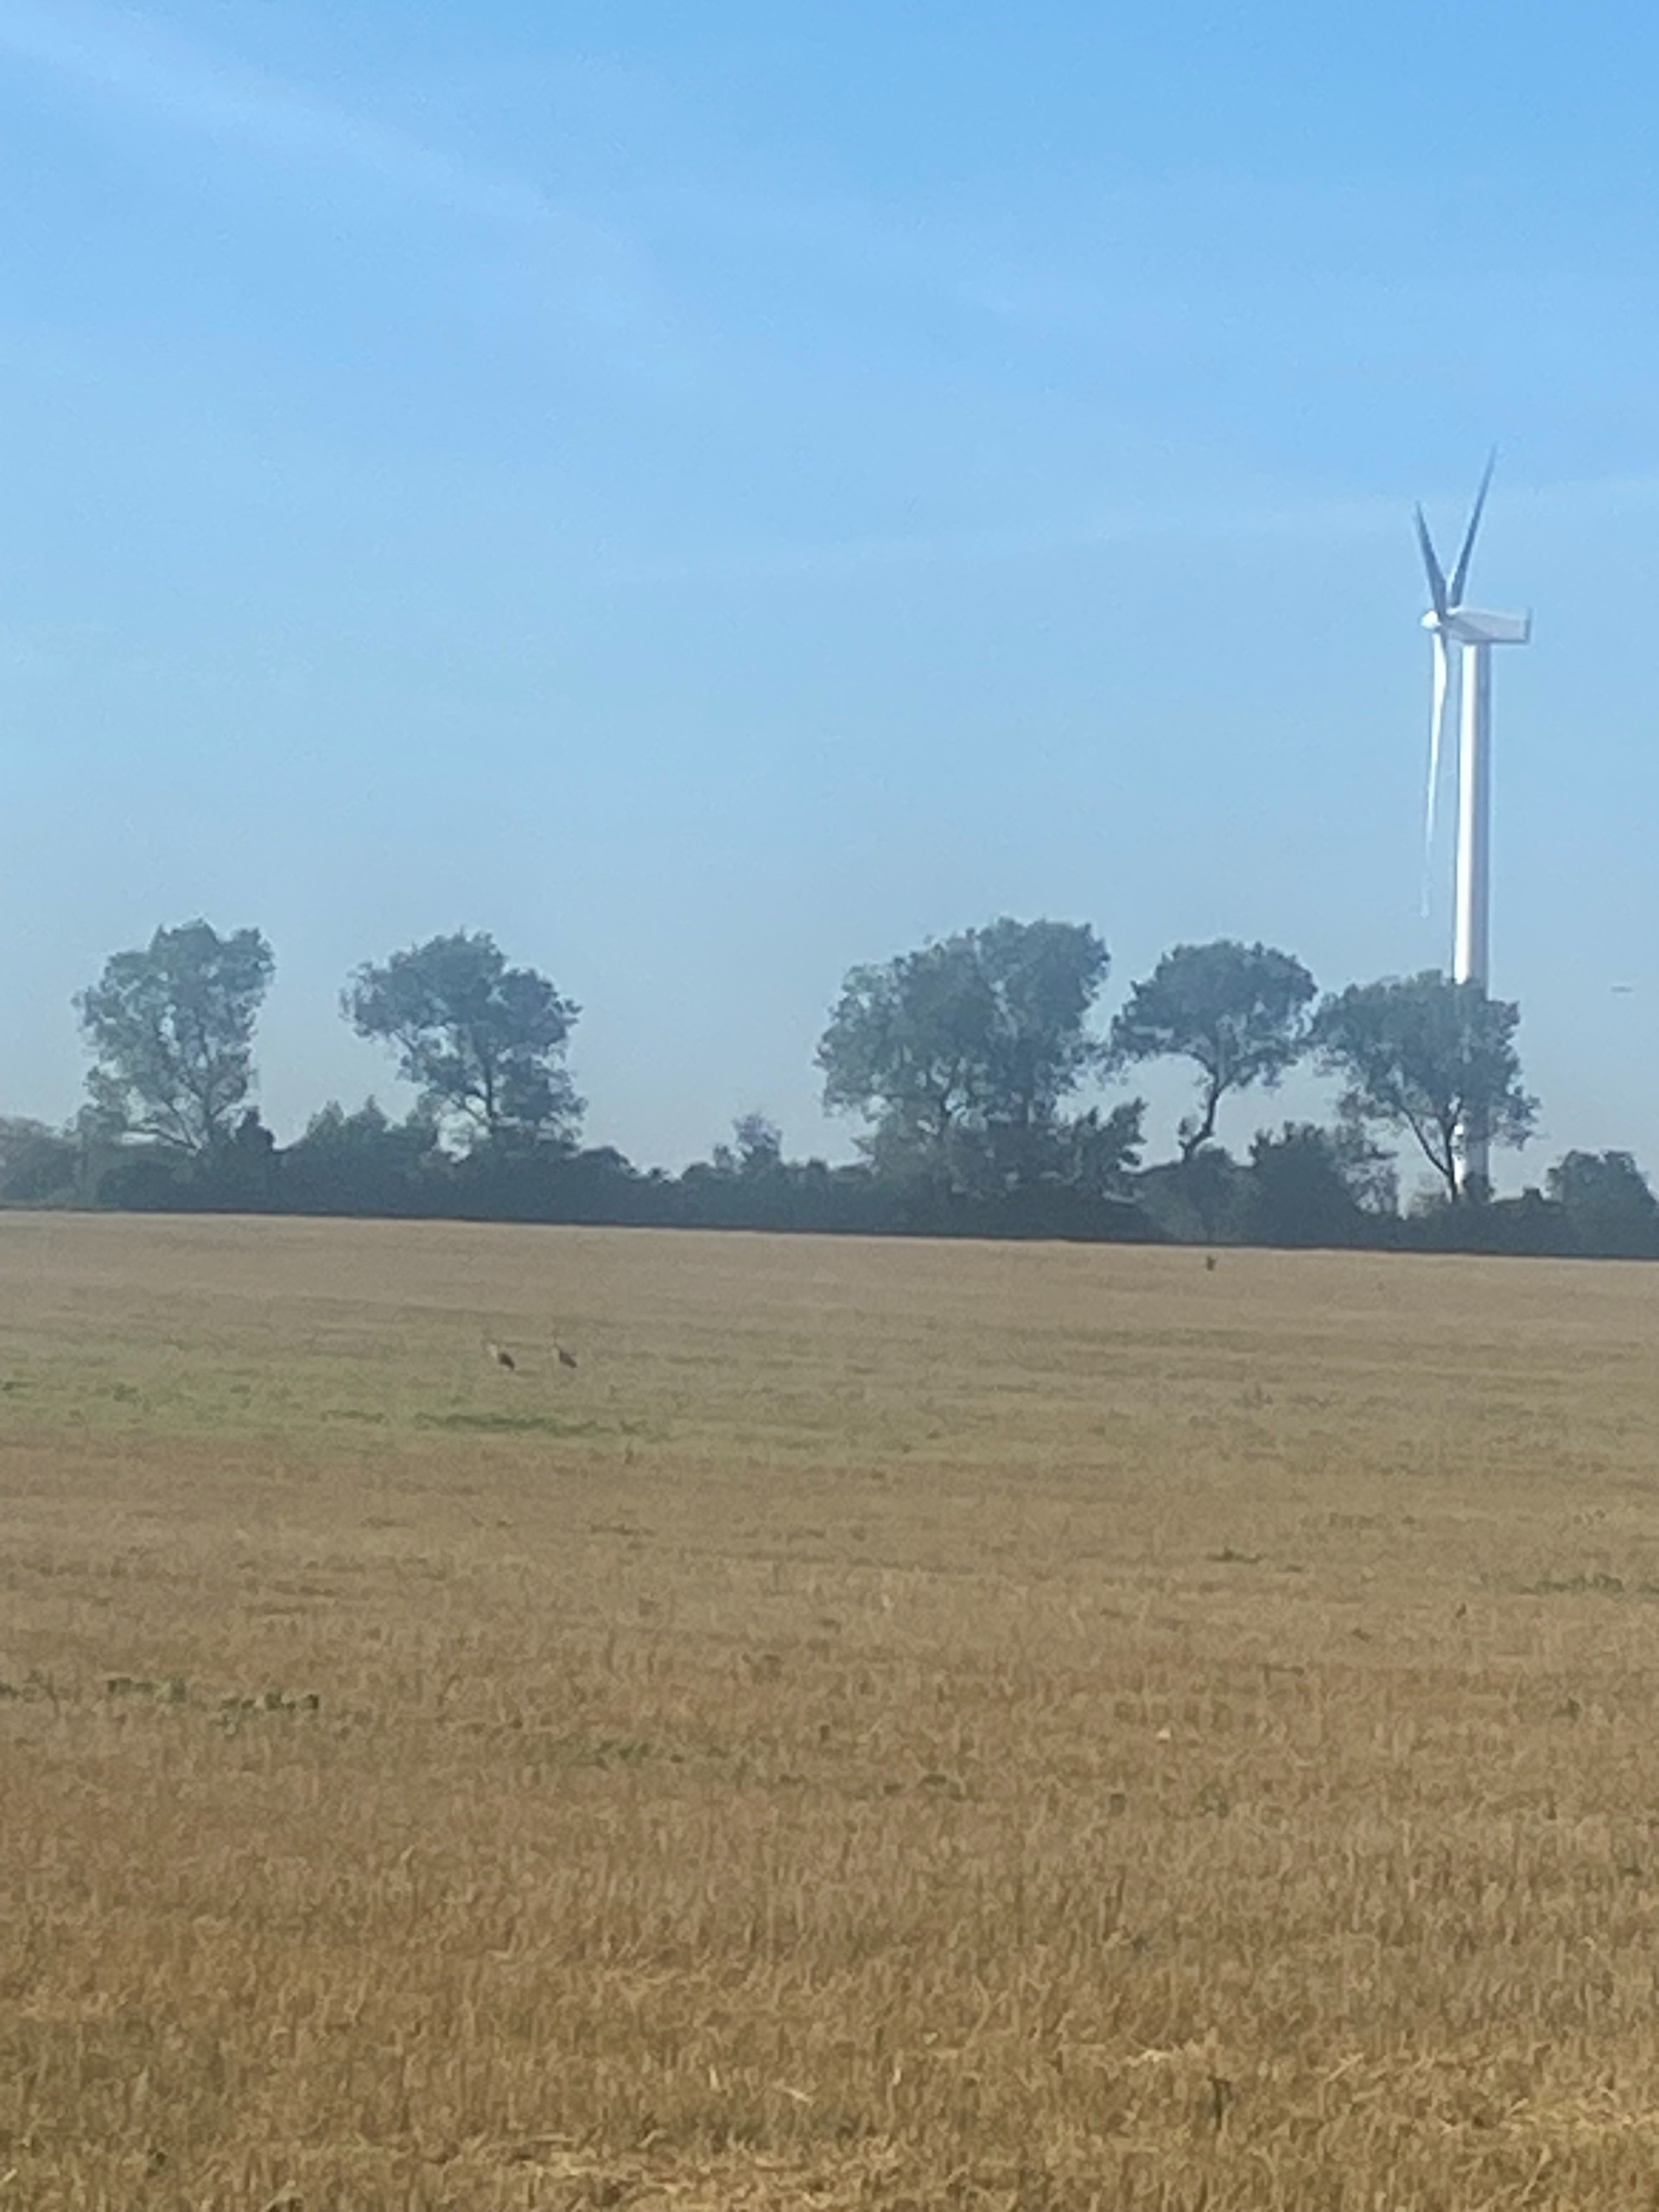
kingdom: Animalia
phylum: Chordata
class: Aves
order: Gruiformes
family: Gruidae
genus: Grus
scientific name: Grus grus
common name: Trane
